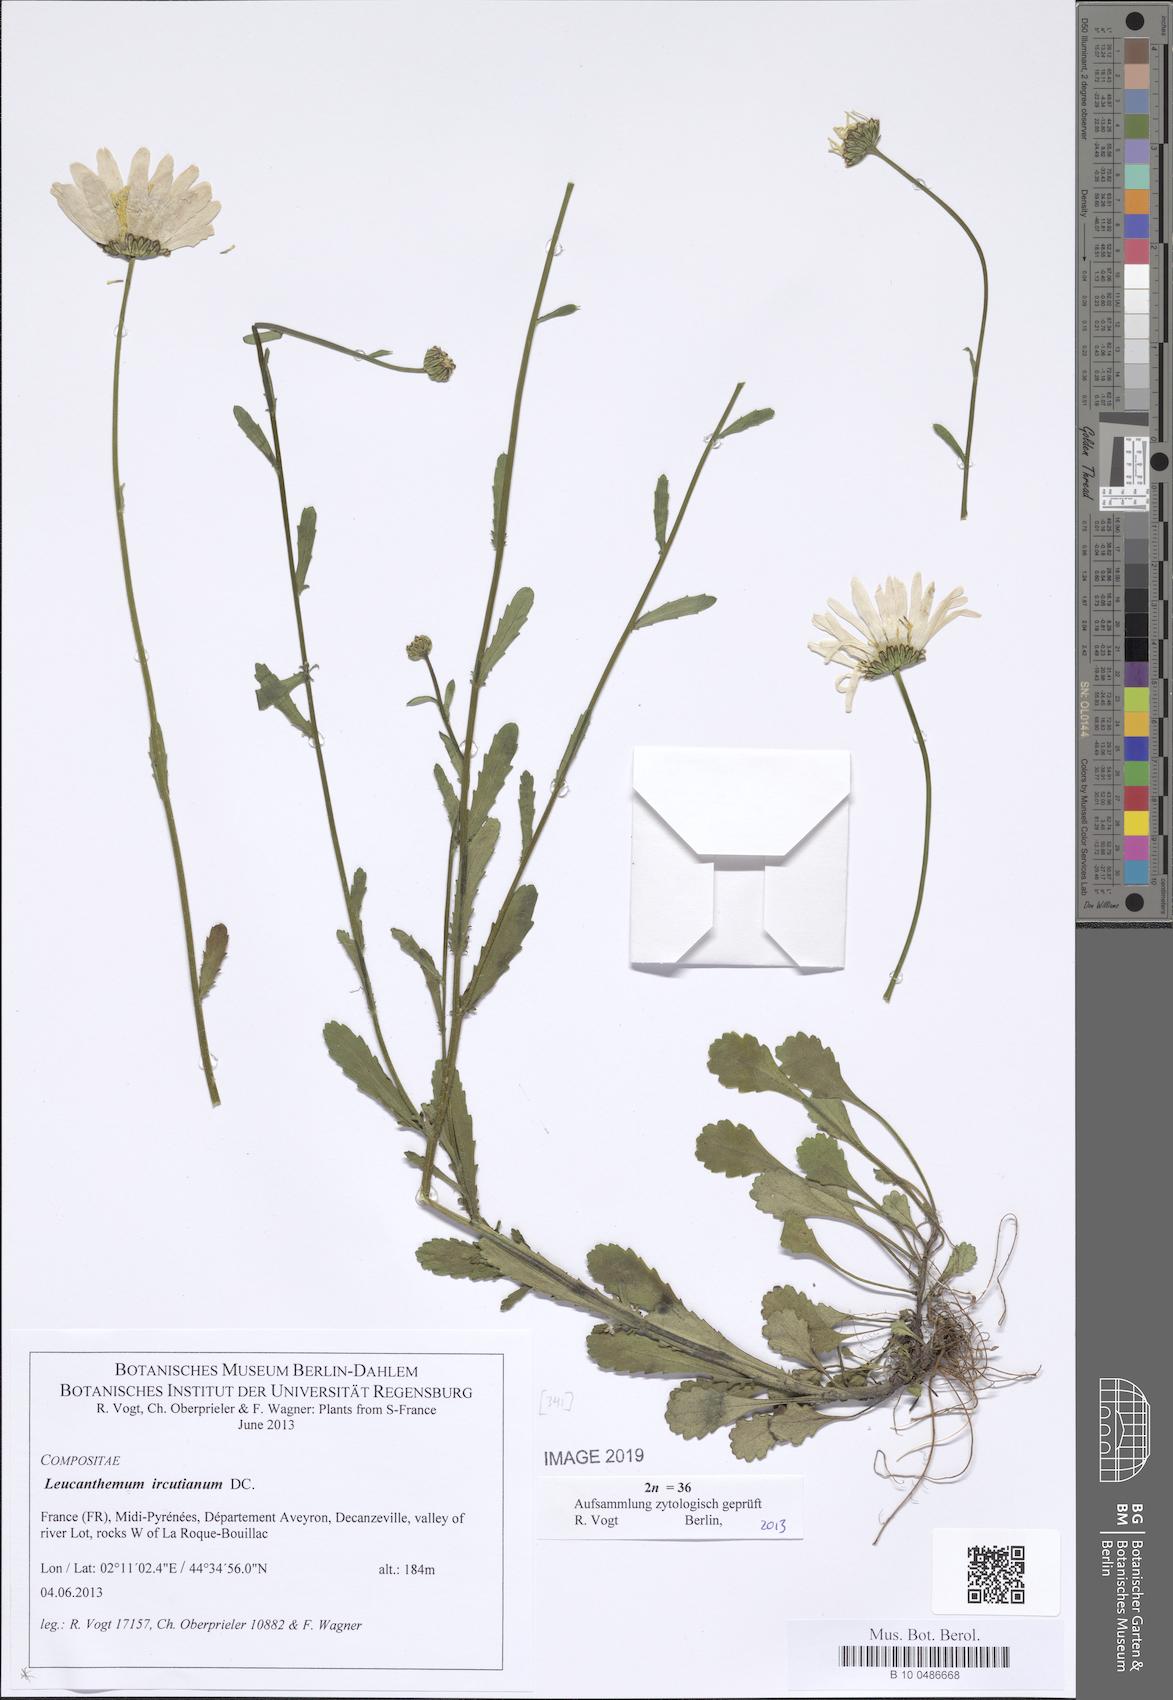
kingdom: Plantae
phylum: Tracheophyta
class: Magnoliopsida
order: Asterales
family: Asteraceae
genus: Leucanthemum
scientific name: Leucanthemum ircutianum
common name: Daisy
